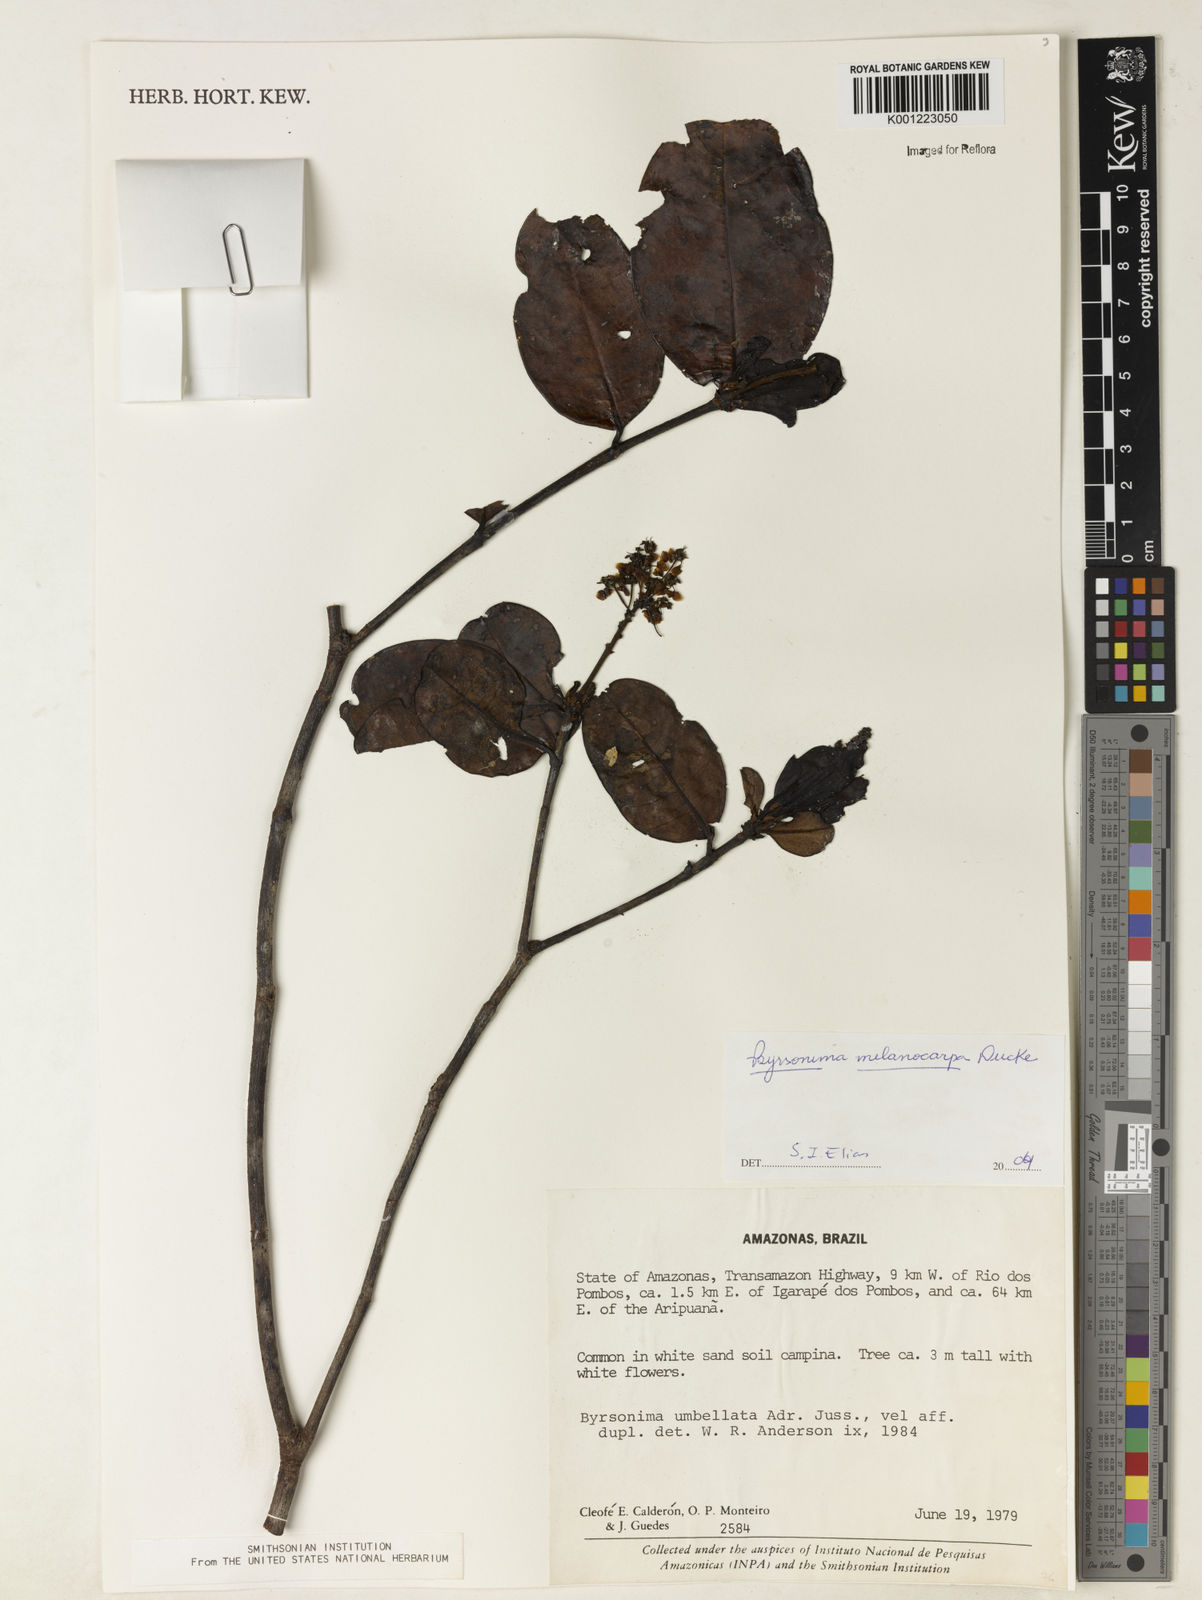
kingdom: Plantae
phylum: Tracheophyta
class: Magnoliopsida
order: Malpighiales
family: Malpighiaceae
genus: Byrsonima
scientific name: Byrsonima melanocarpa
